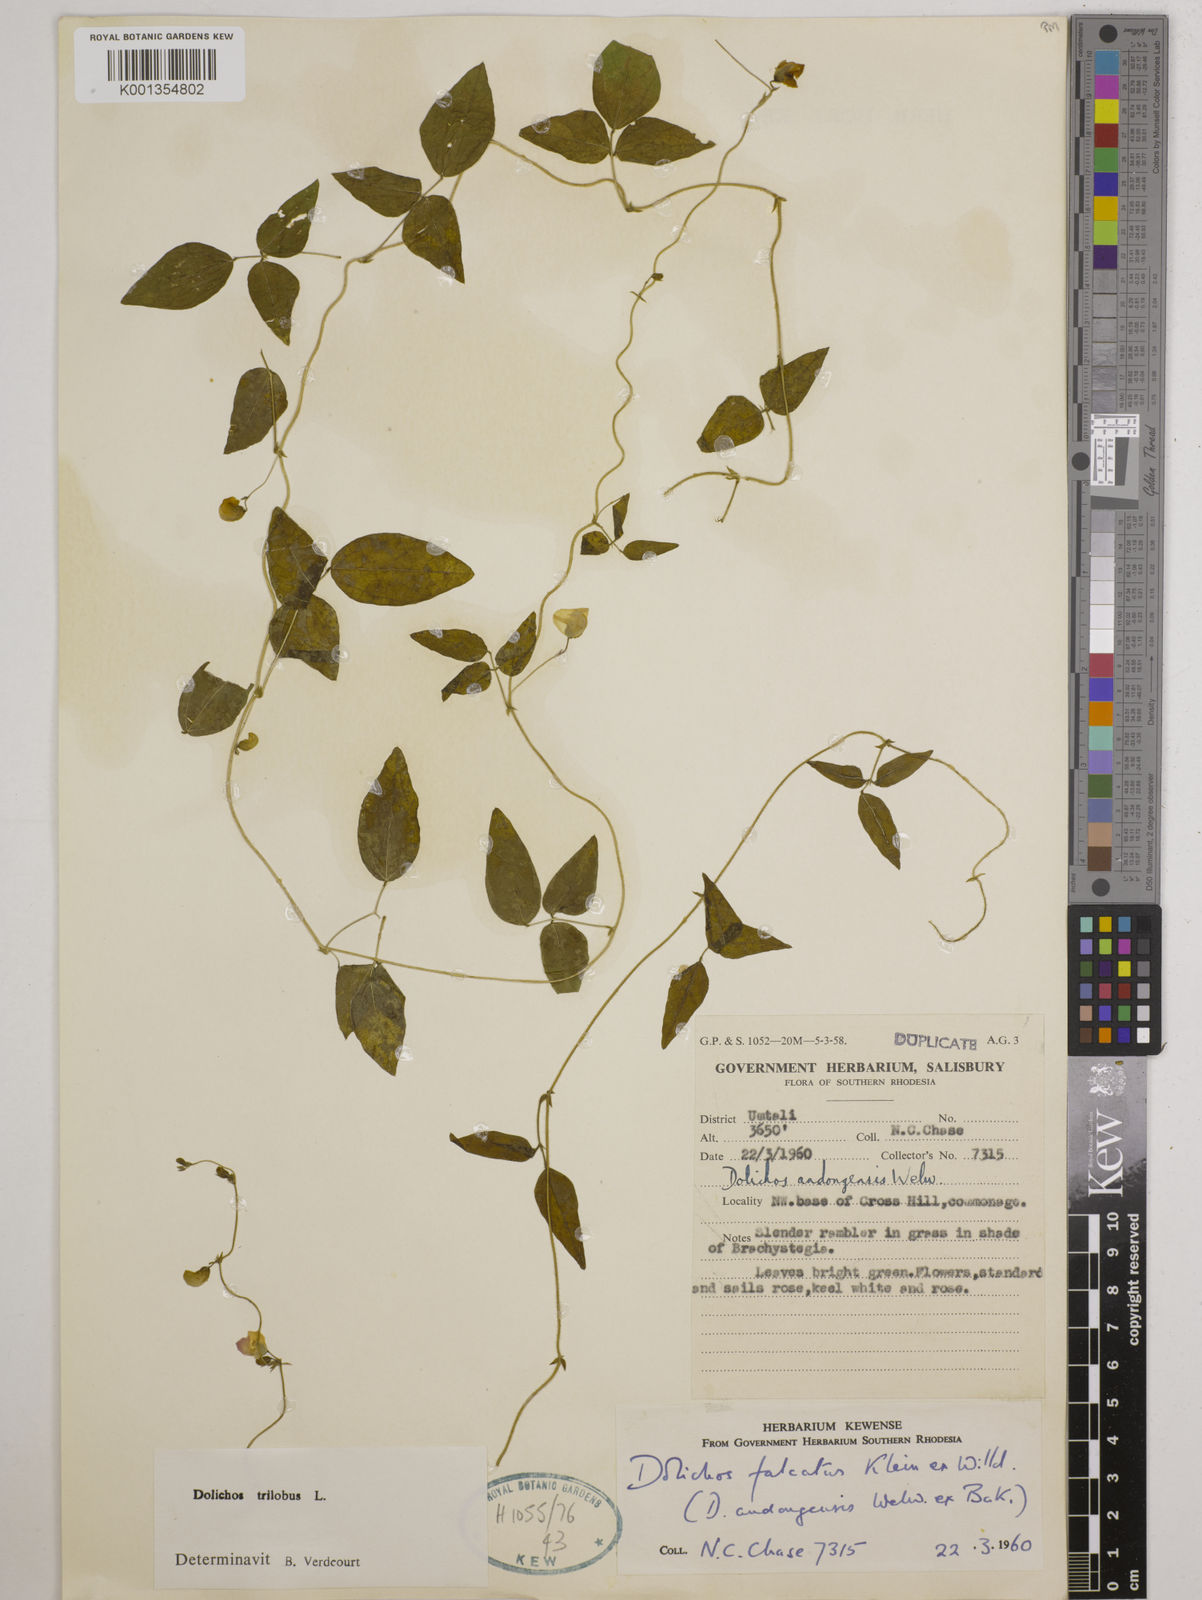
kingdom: Plantae
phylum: Tracheophyta
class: Magnoliopsida
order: Fabales
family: Fabaceae
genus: Dolichos
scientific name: Dolichos
